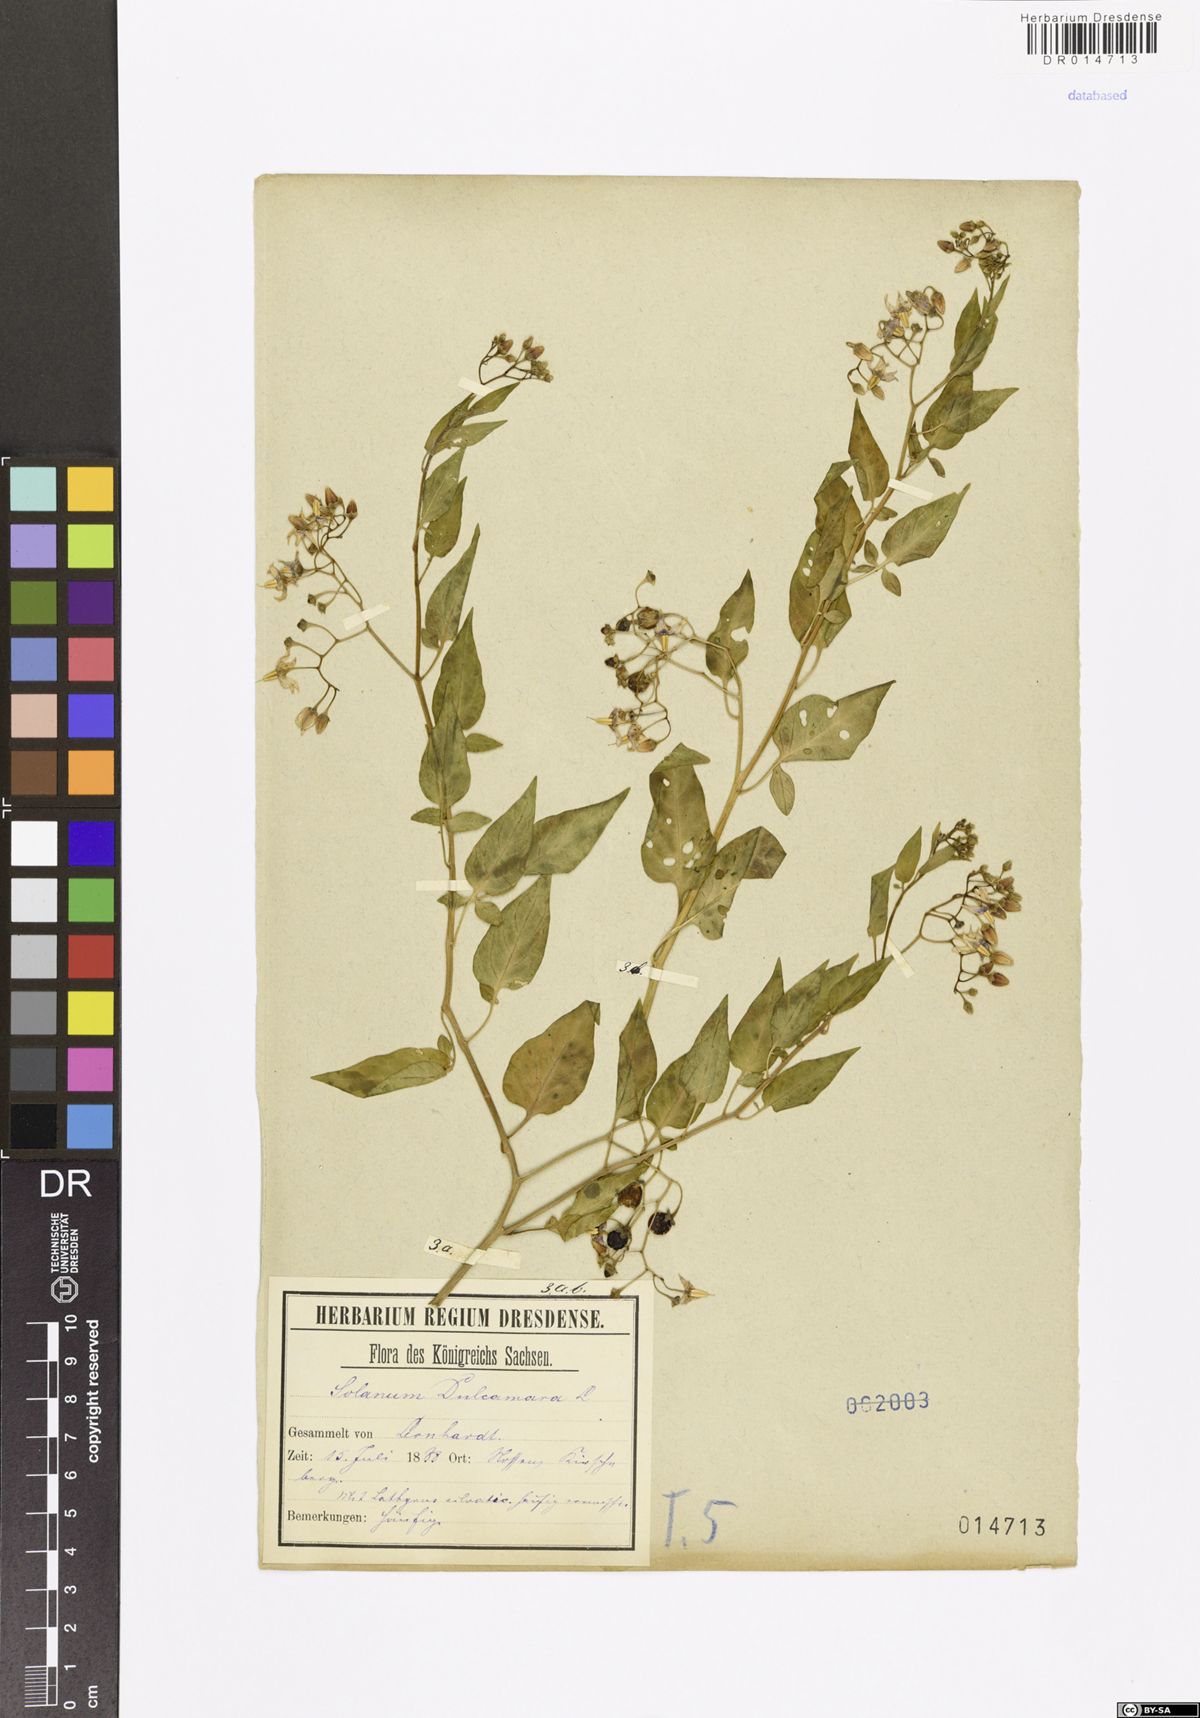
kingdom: Plantae
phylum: Tracheophyta
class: Magnoliopsida
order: Solanales
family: Solanaceae
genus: Solanum
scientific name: Solanum dulcamara
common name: Climbing nightshade
